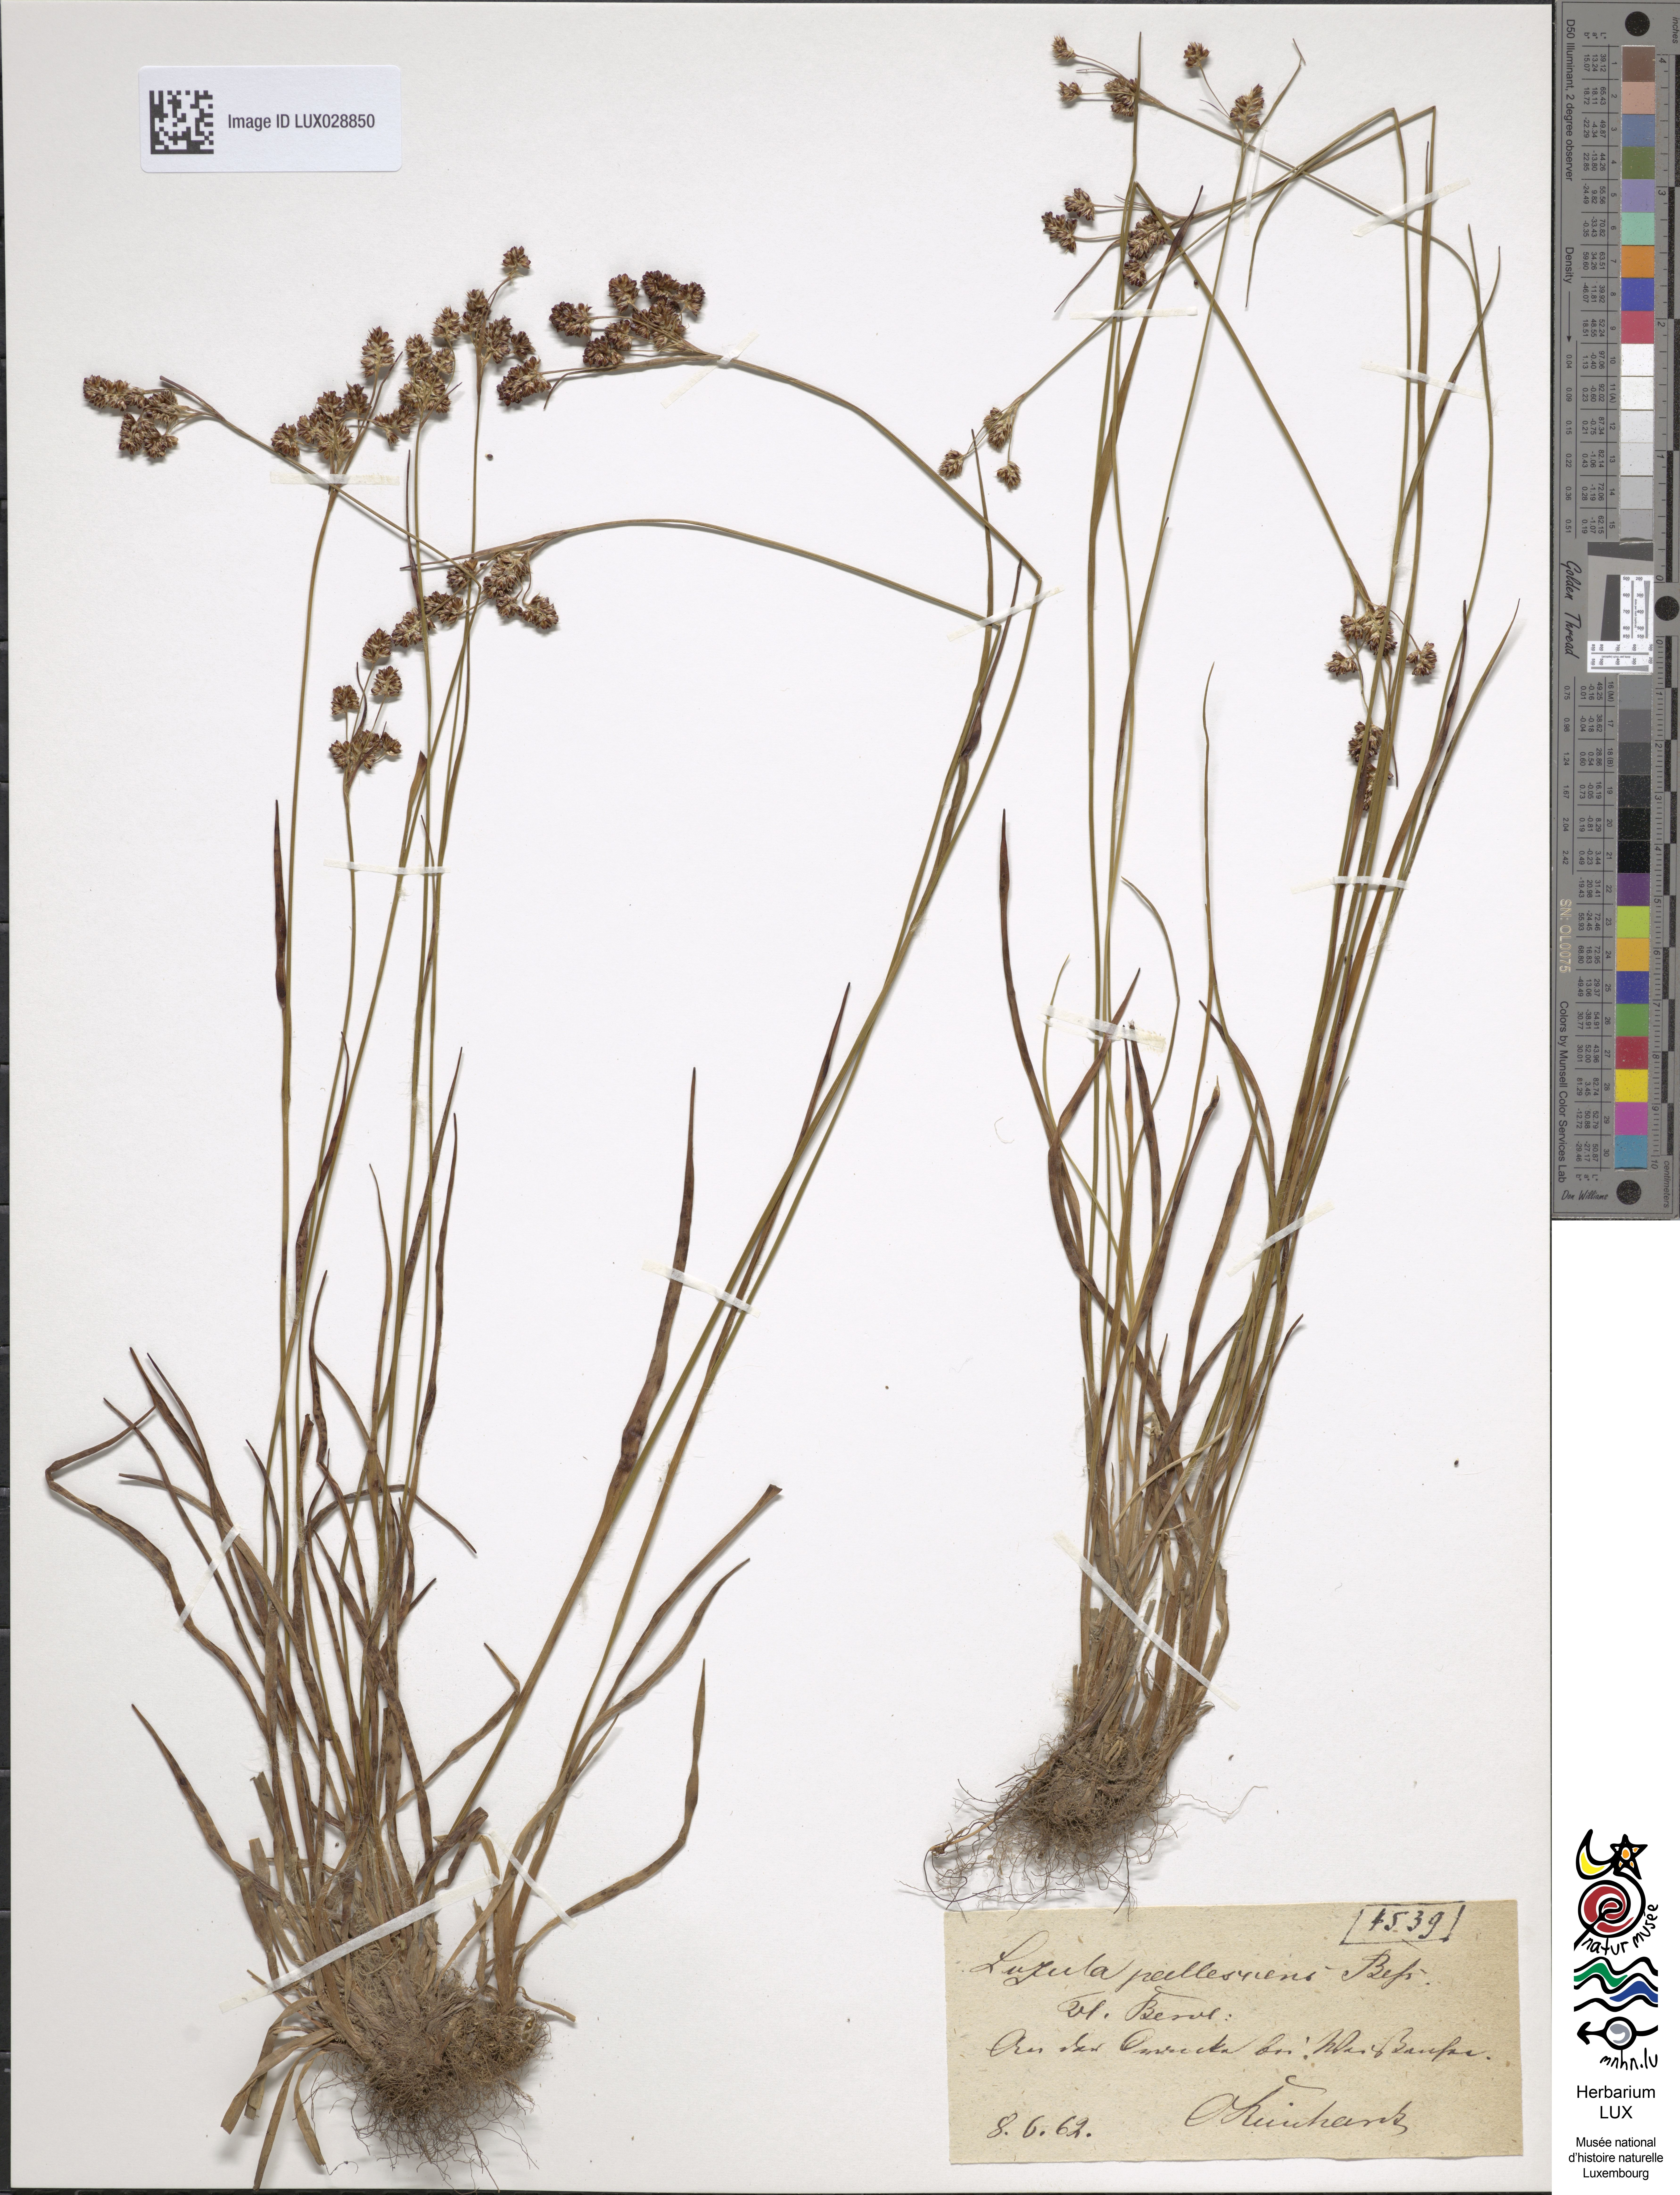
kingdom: Plantae
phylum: Tracheophyta
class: Liliopsida
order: Poales
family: Juncaceae
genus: Luzula
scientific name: Luzula pallescens
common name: Fen wood-rush
